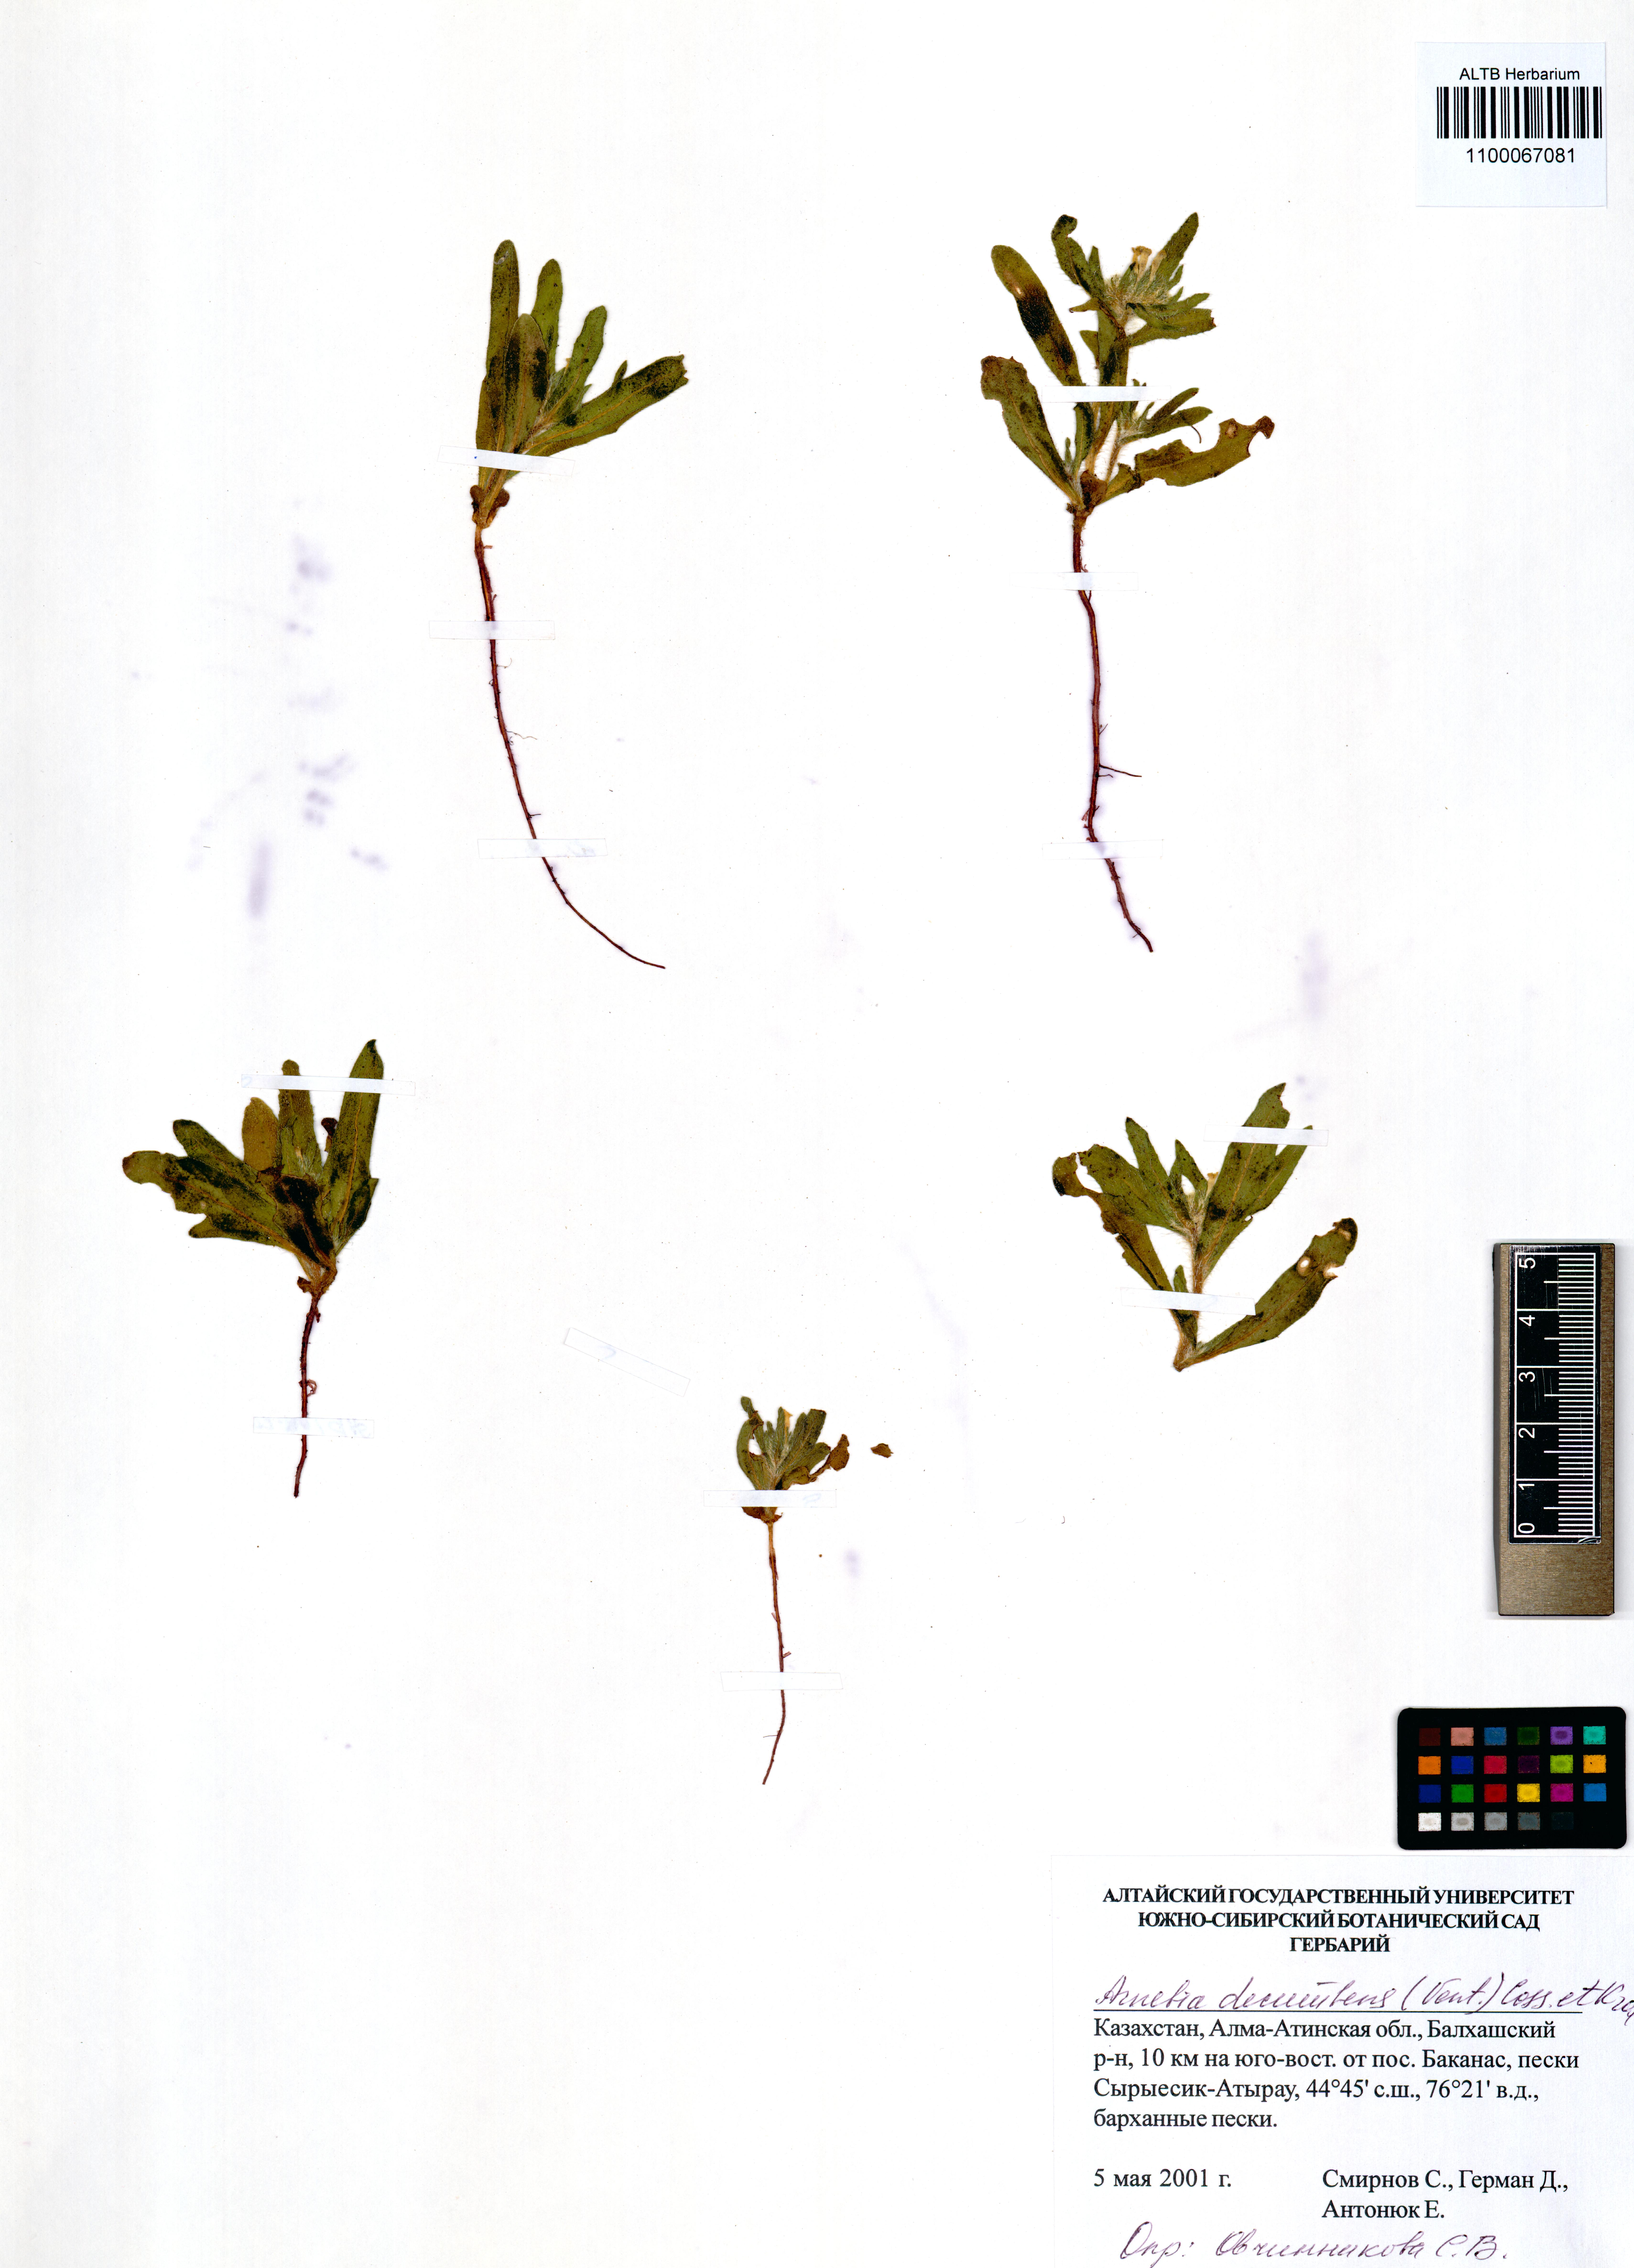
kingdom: Plantae
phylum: Tracheophyta
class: Magnoliopsida
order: Boraginales
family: Boraginaceae
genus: Arnebia
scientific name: Arnebia decumbens
